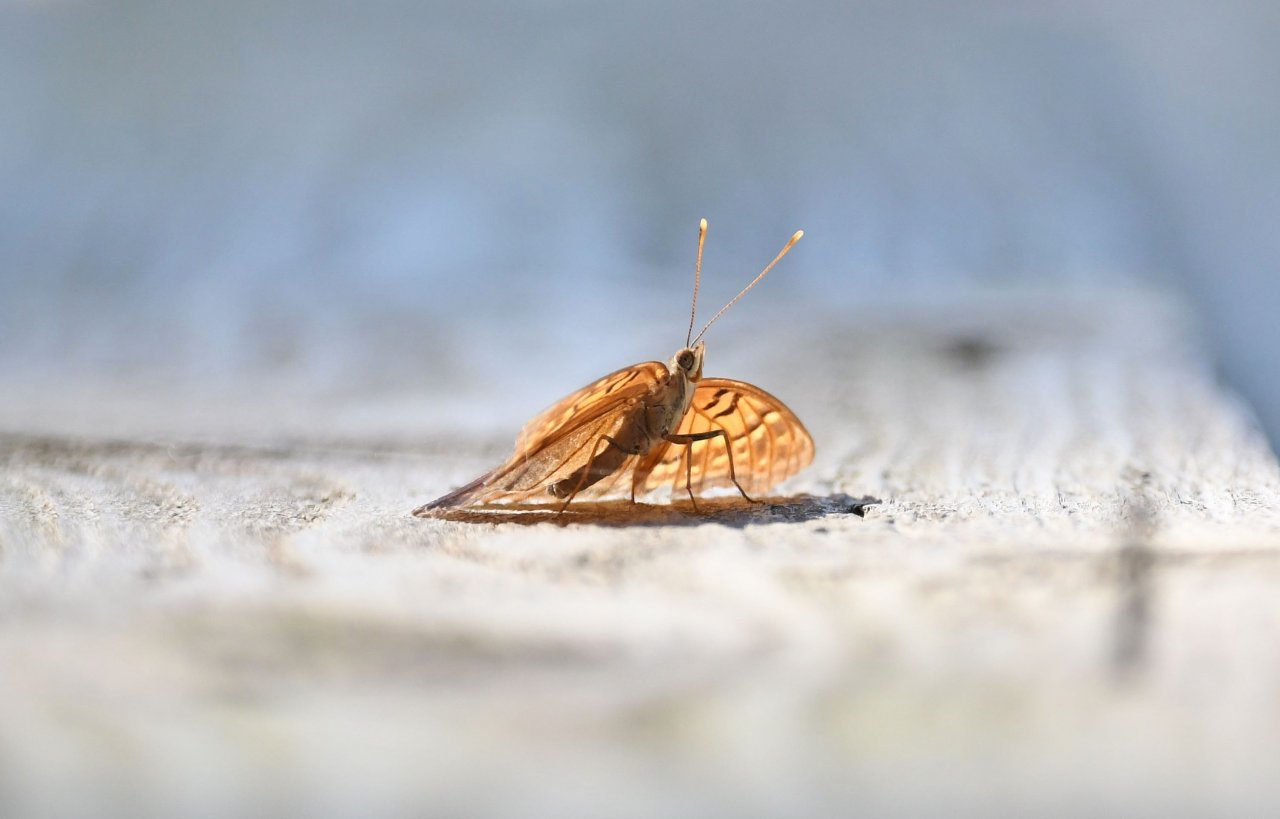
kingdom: Animalia
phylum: Arthropoda
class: Insecta
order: Lepidoptera
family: Nymphalidae
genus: Asterocampa
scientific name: Asterocampa clyton
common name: Tawny Emperor
